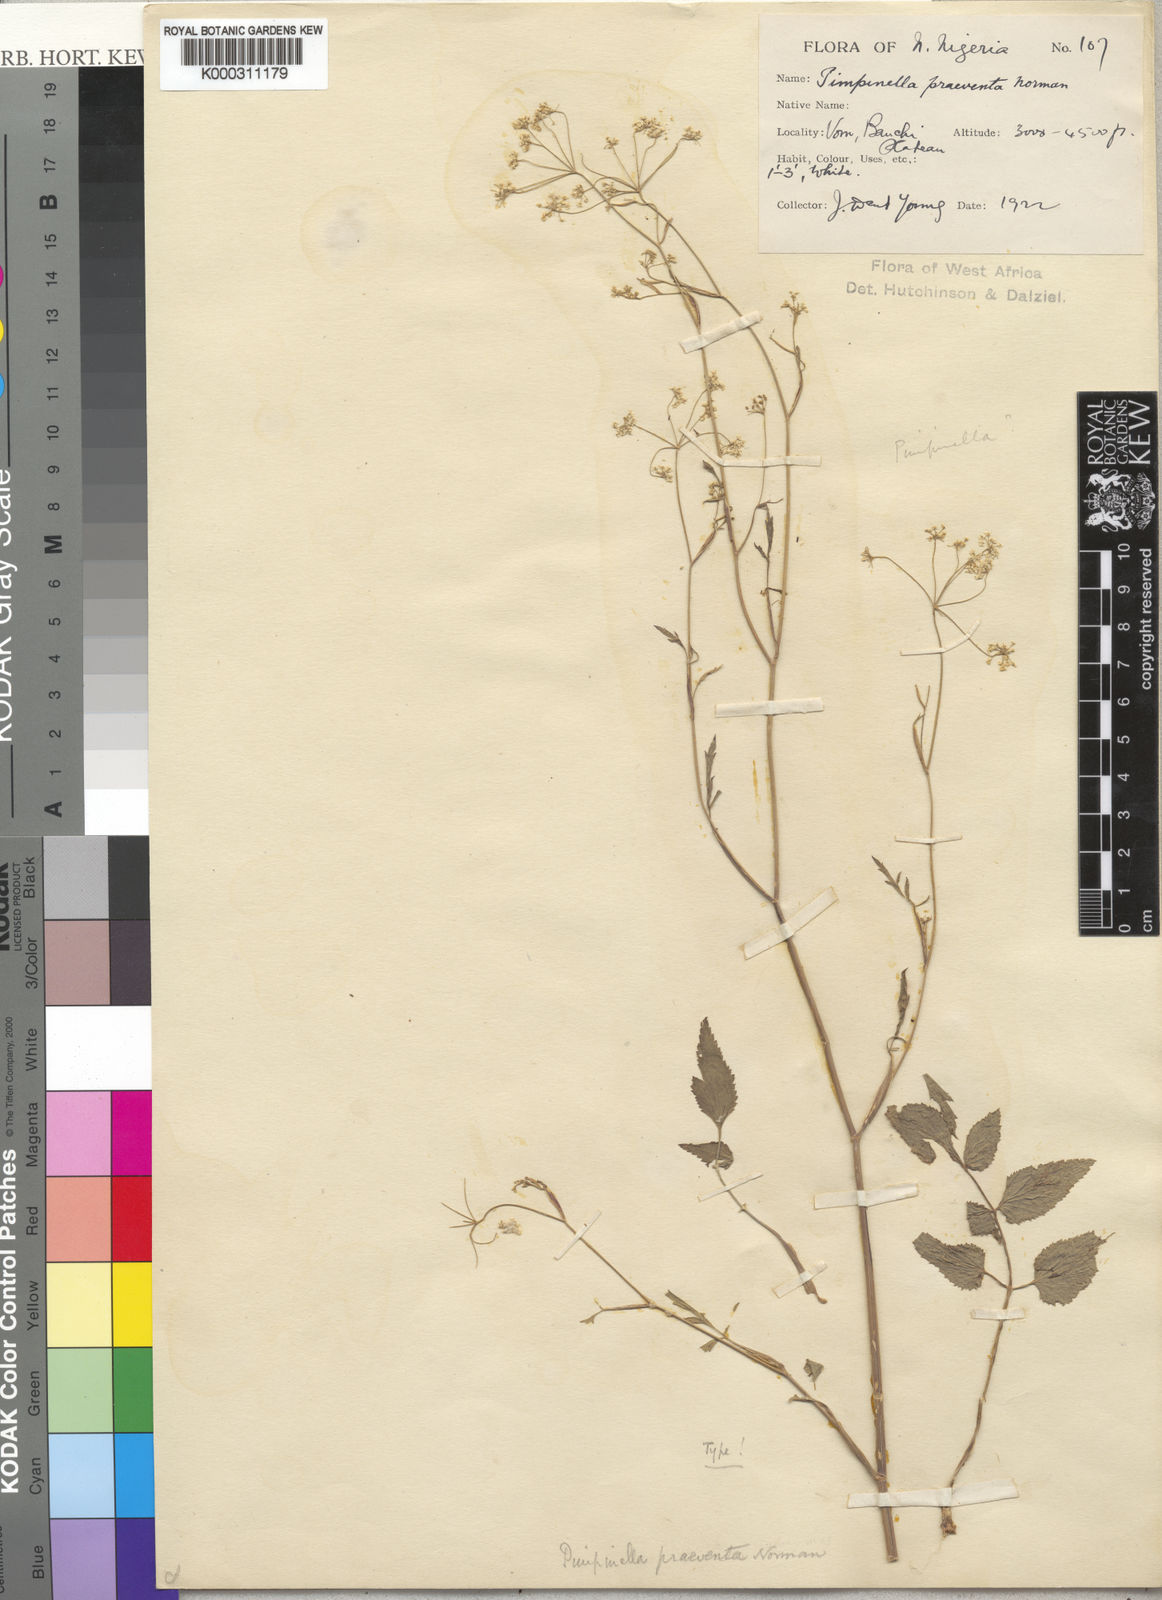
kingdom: Plantae
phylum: Tracheophyta
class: Magnoliopsida
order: Apiales
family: Apiaceae
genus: Pimpinella
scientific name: Pimpinella hirtella
